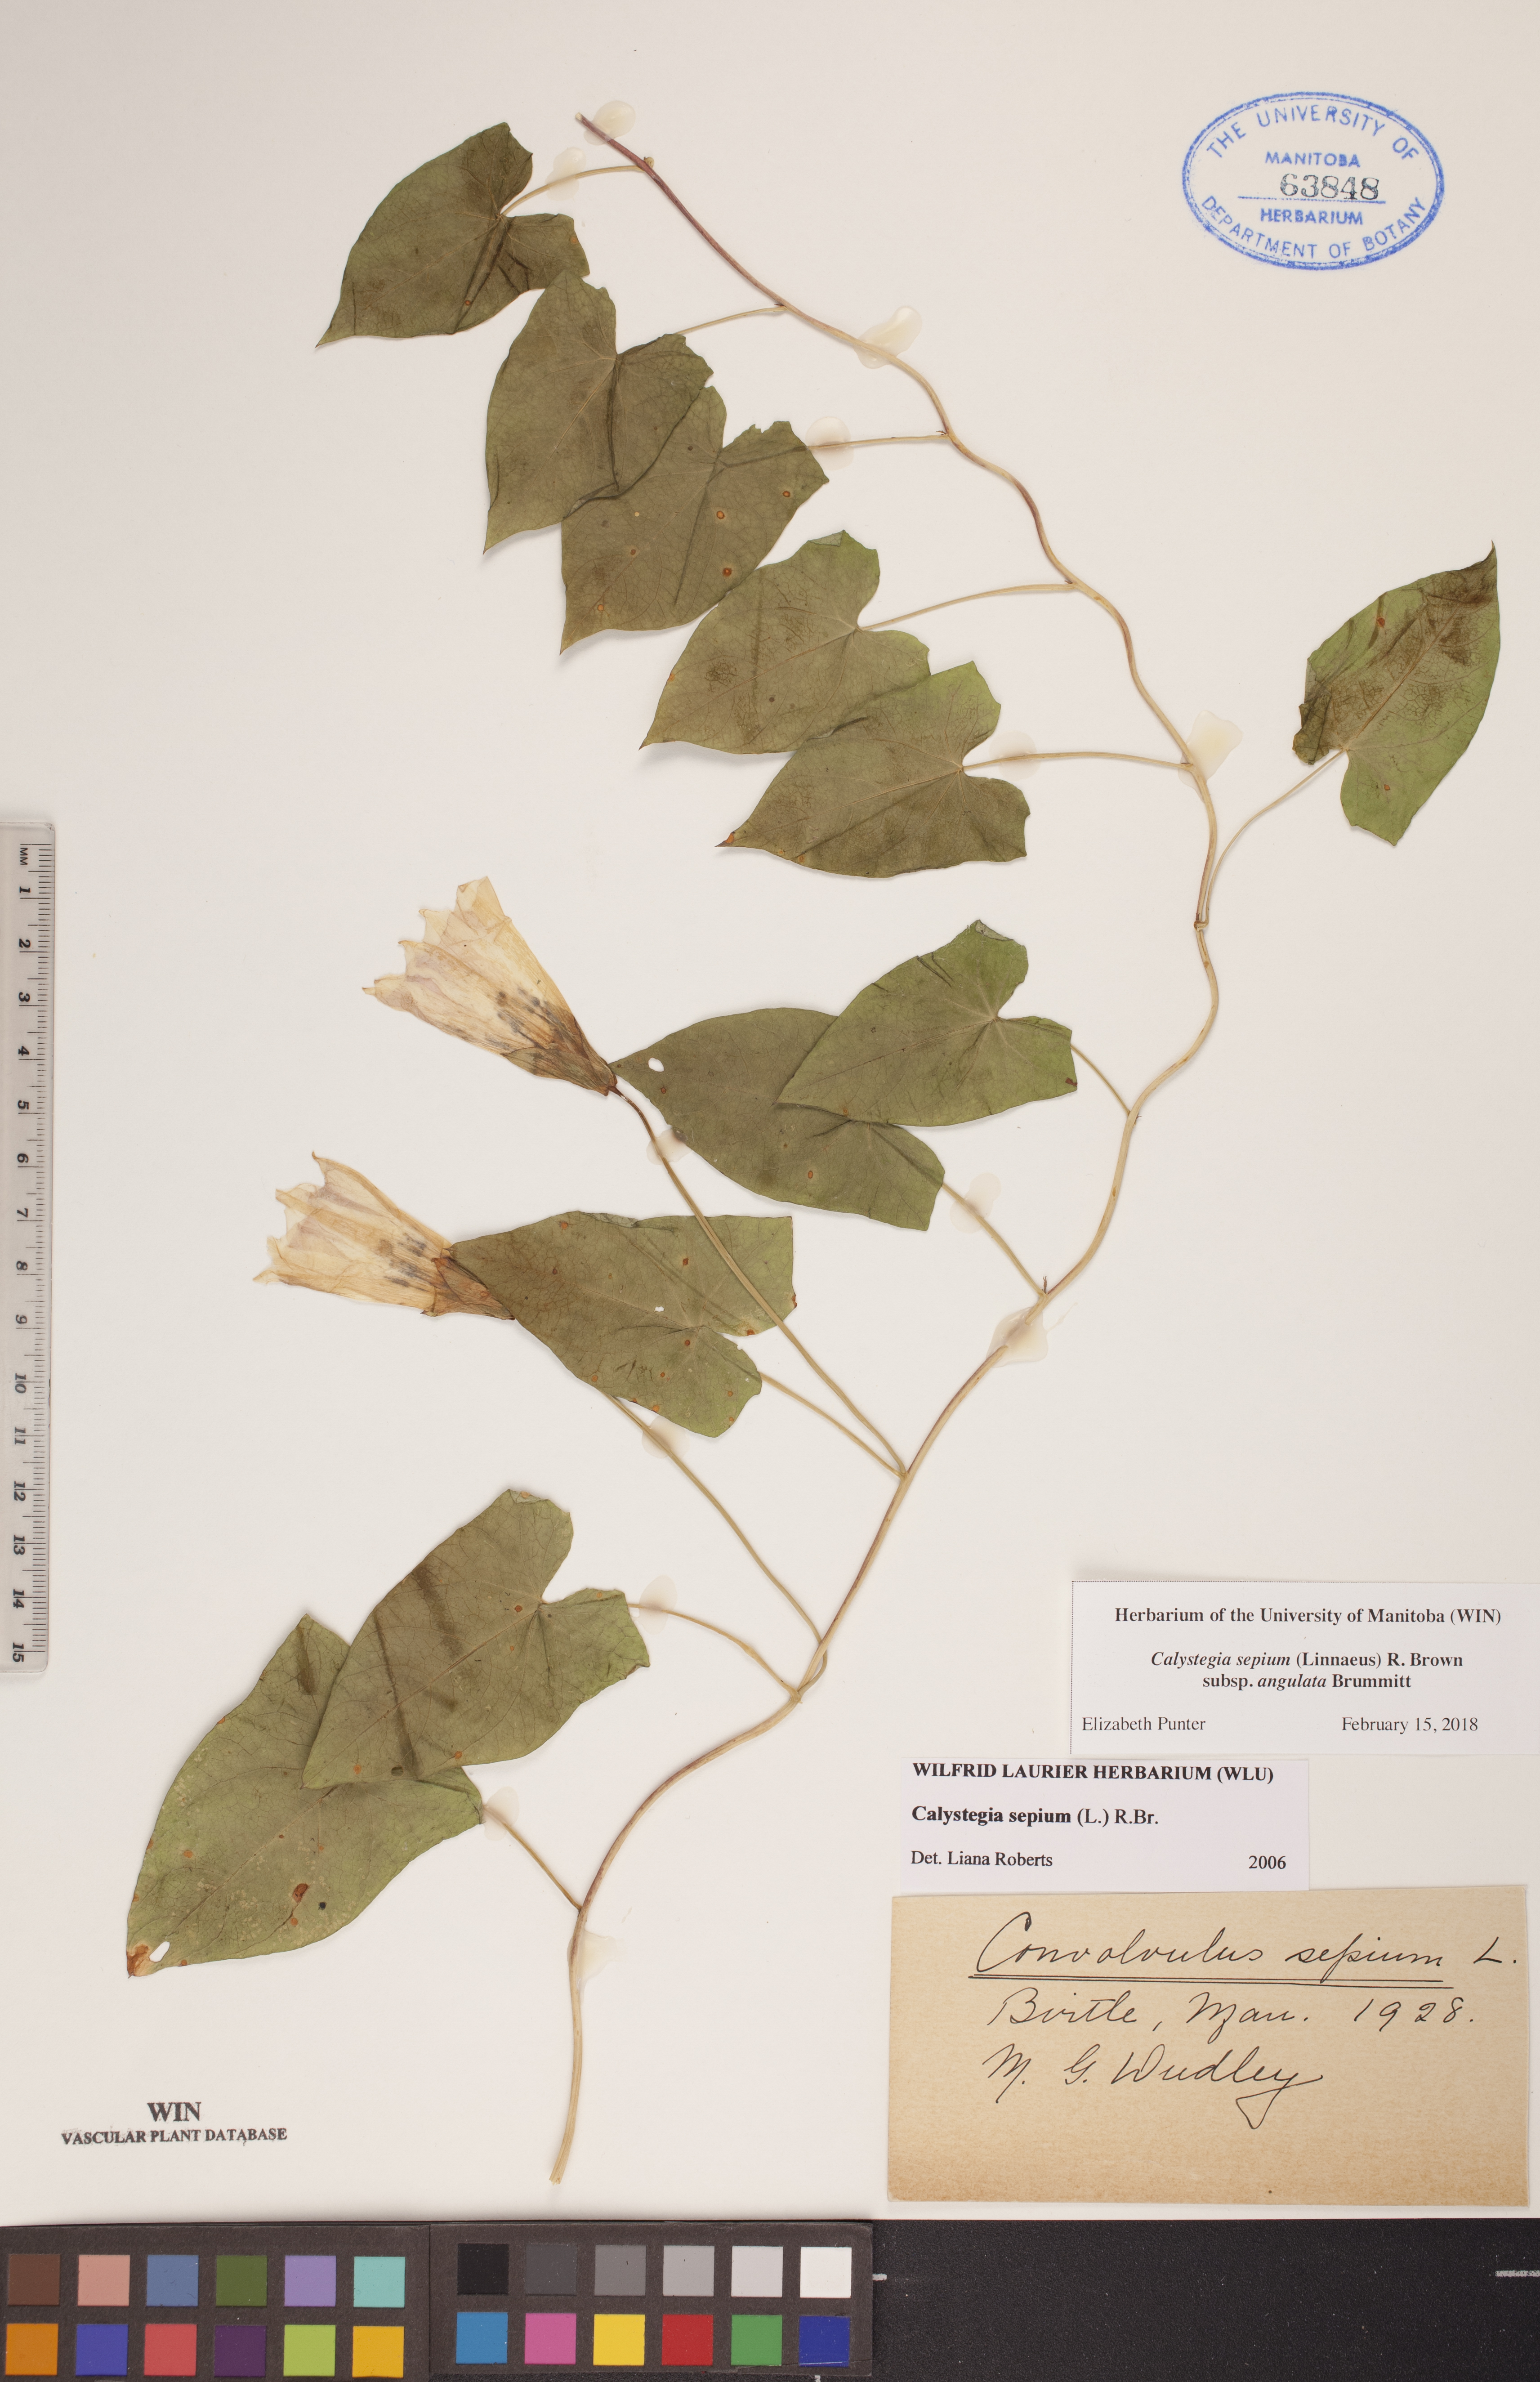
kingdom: Plantae
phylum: Tracheophyta
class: Magnoliopsida
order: Solanales
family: Convolvulaceae
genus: Calystegia
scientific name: Calystegia sepium
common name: Hedge bindweed
